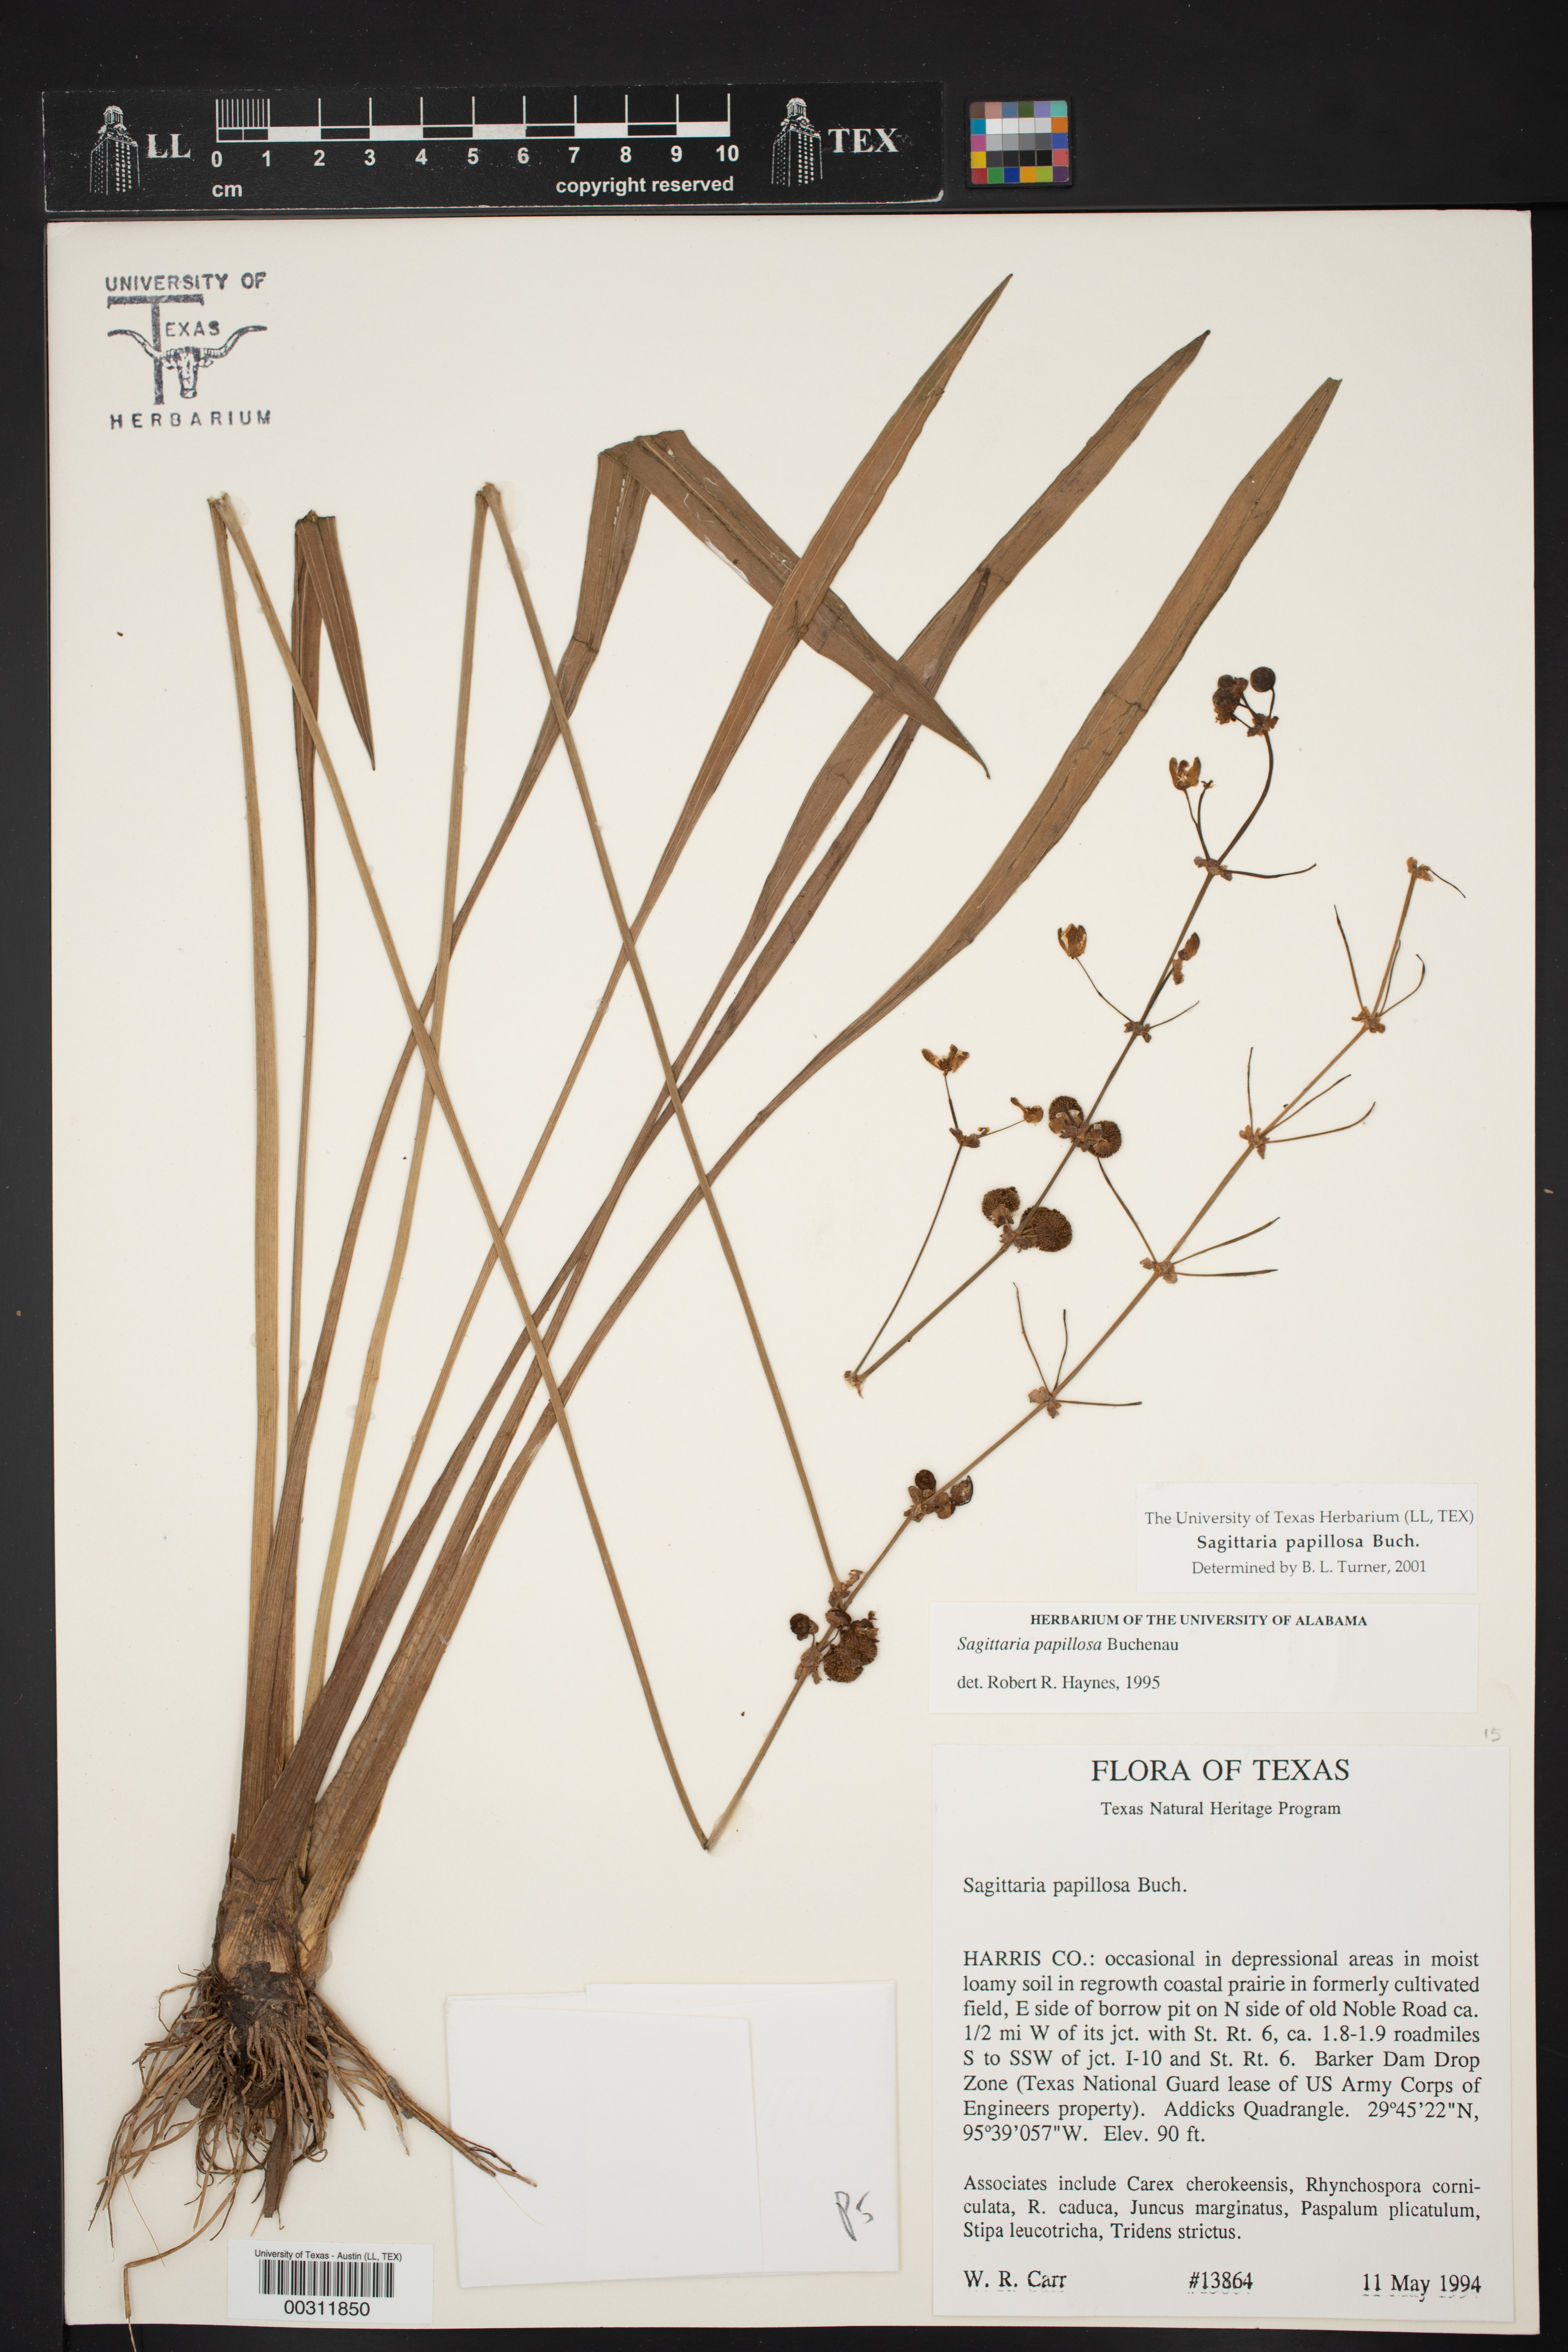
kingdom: Plantae
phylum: Tracheophyta
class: Liliopsida
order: Alismatales
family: Alismataceae
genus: Sagittaria
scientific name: Sagittaria papillosa
